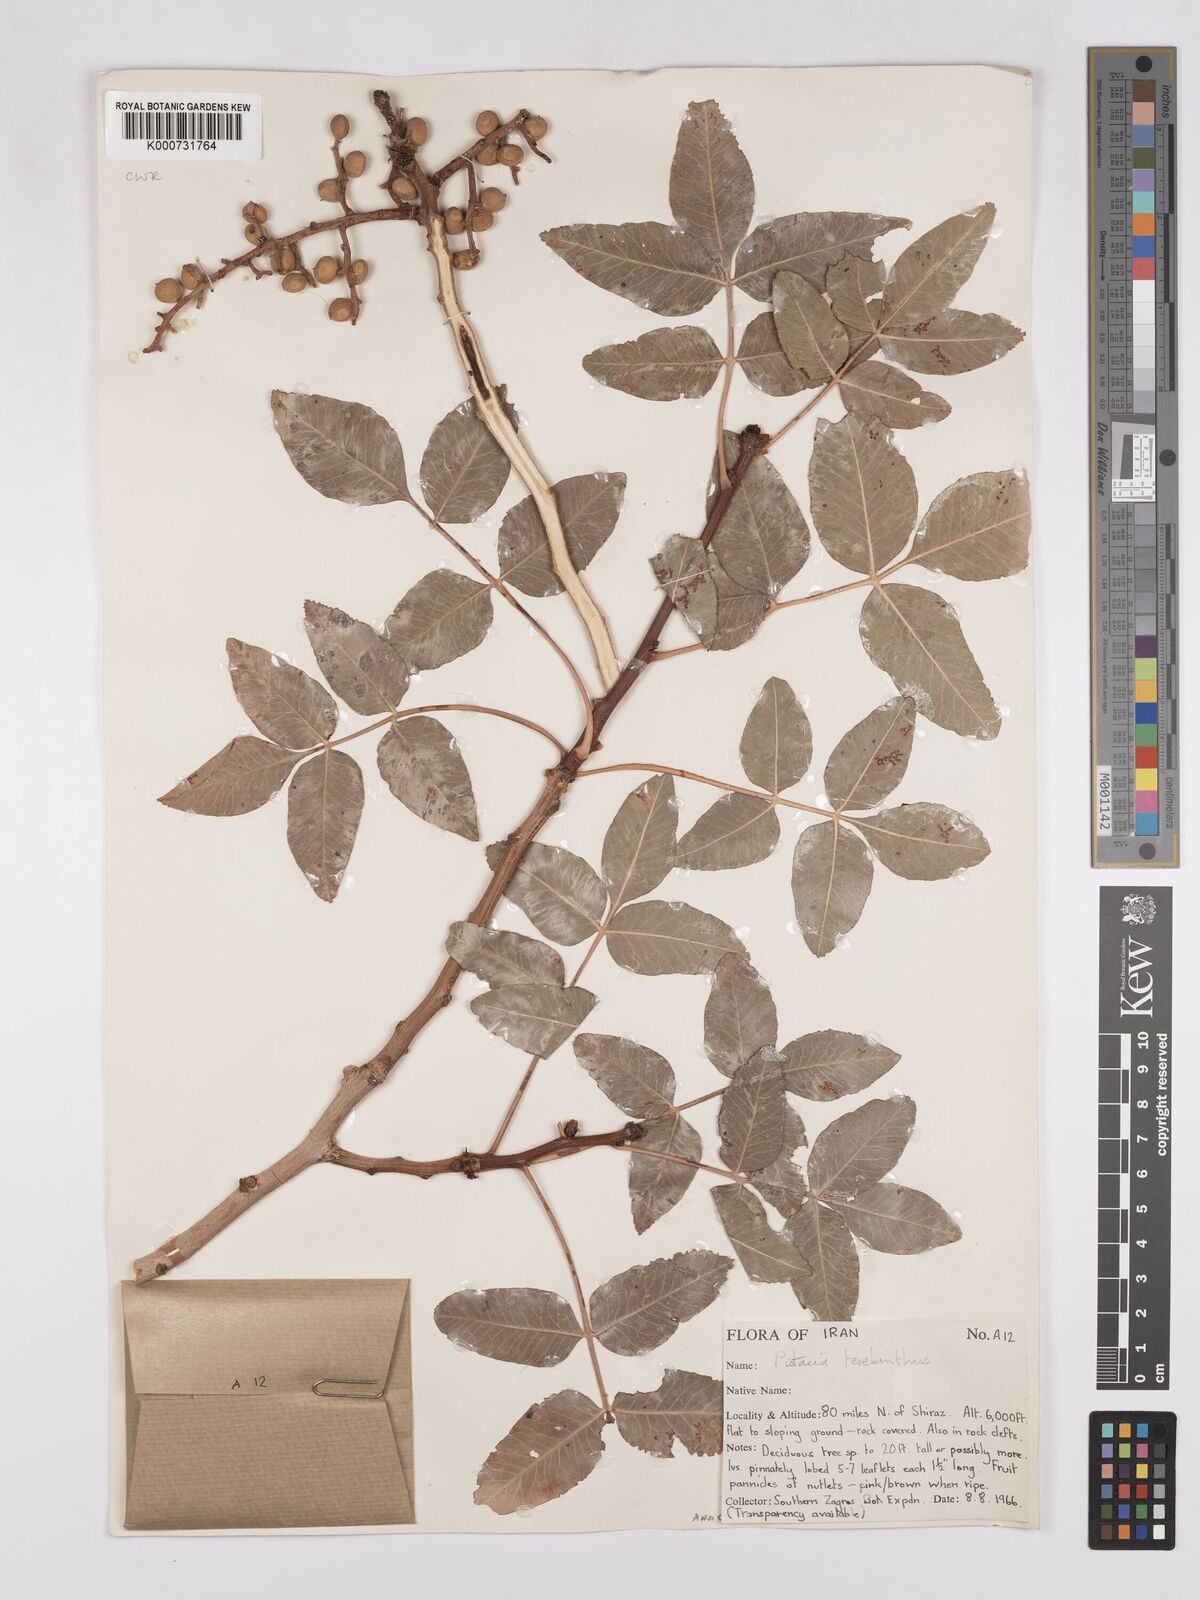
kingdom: Plantae
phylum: Tracheophyta
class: Magnoliopsida
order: Sapindales
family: Anacardiaceae
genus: Pistacia
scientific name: Pistacia terebinthus
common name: Terebinth
